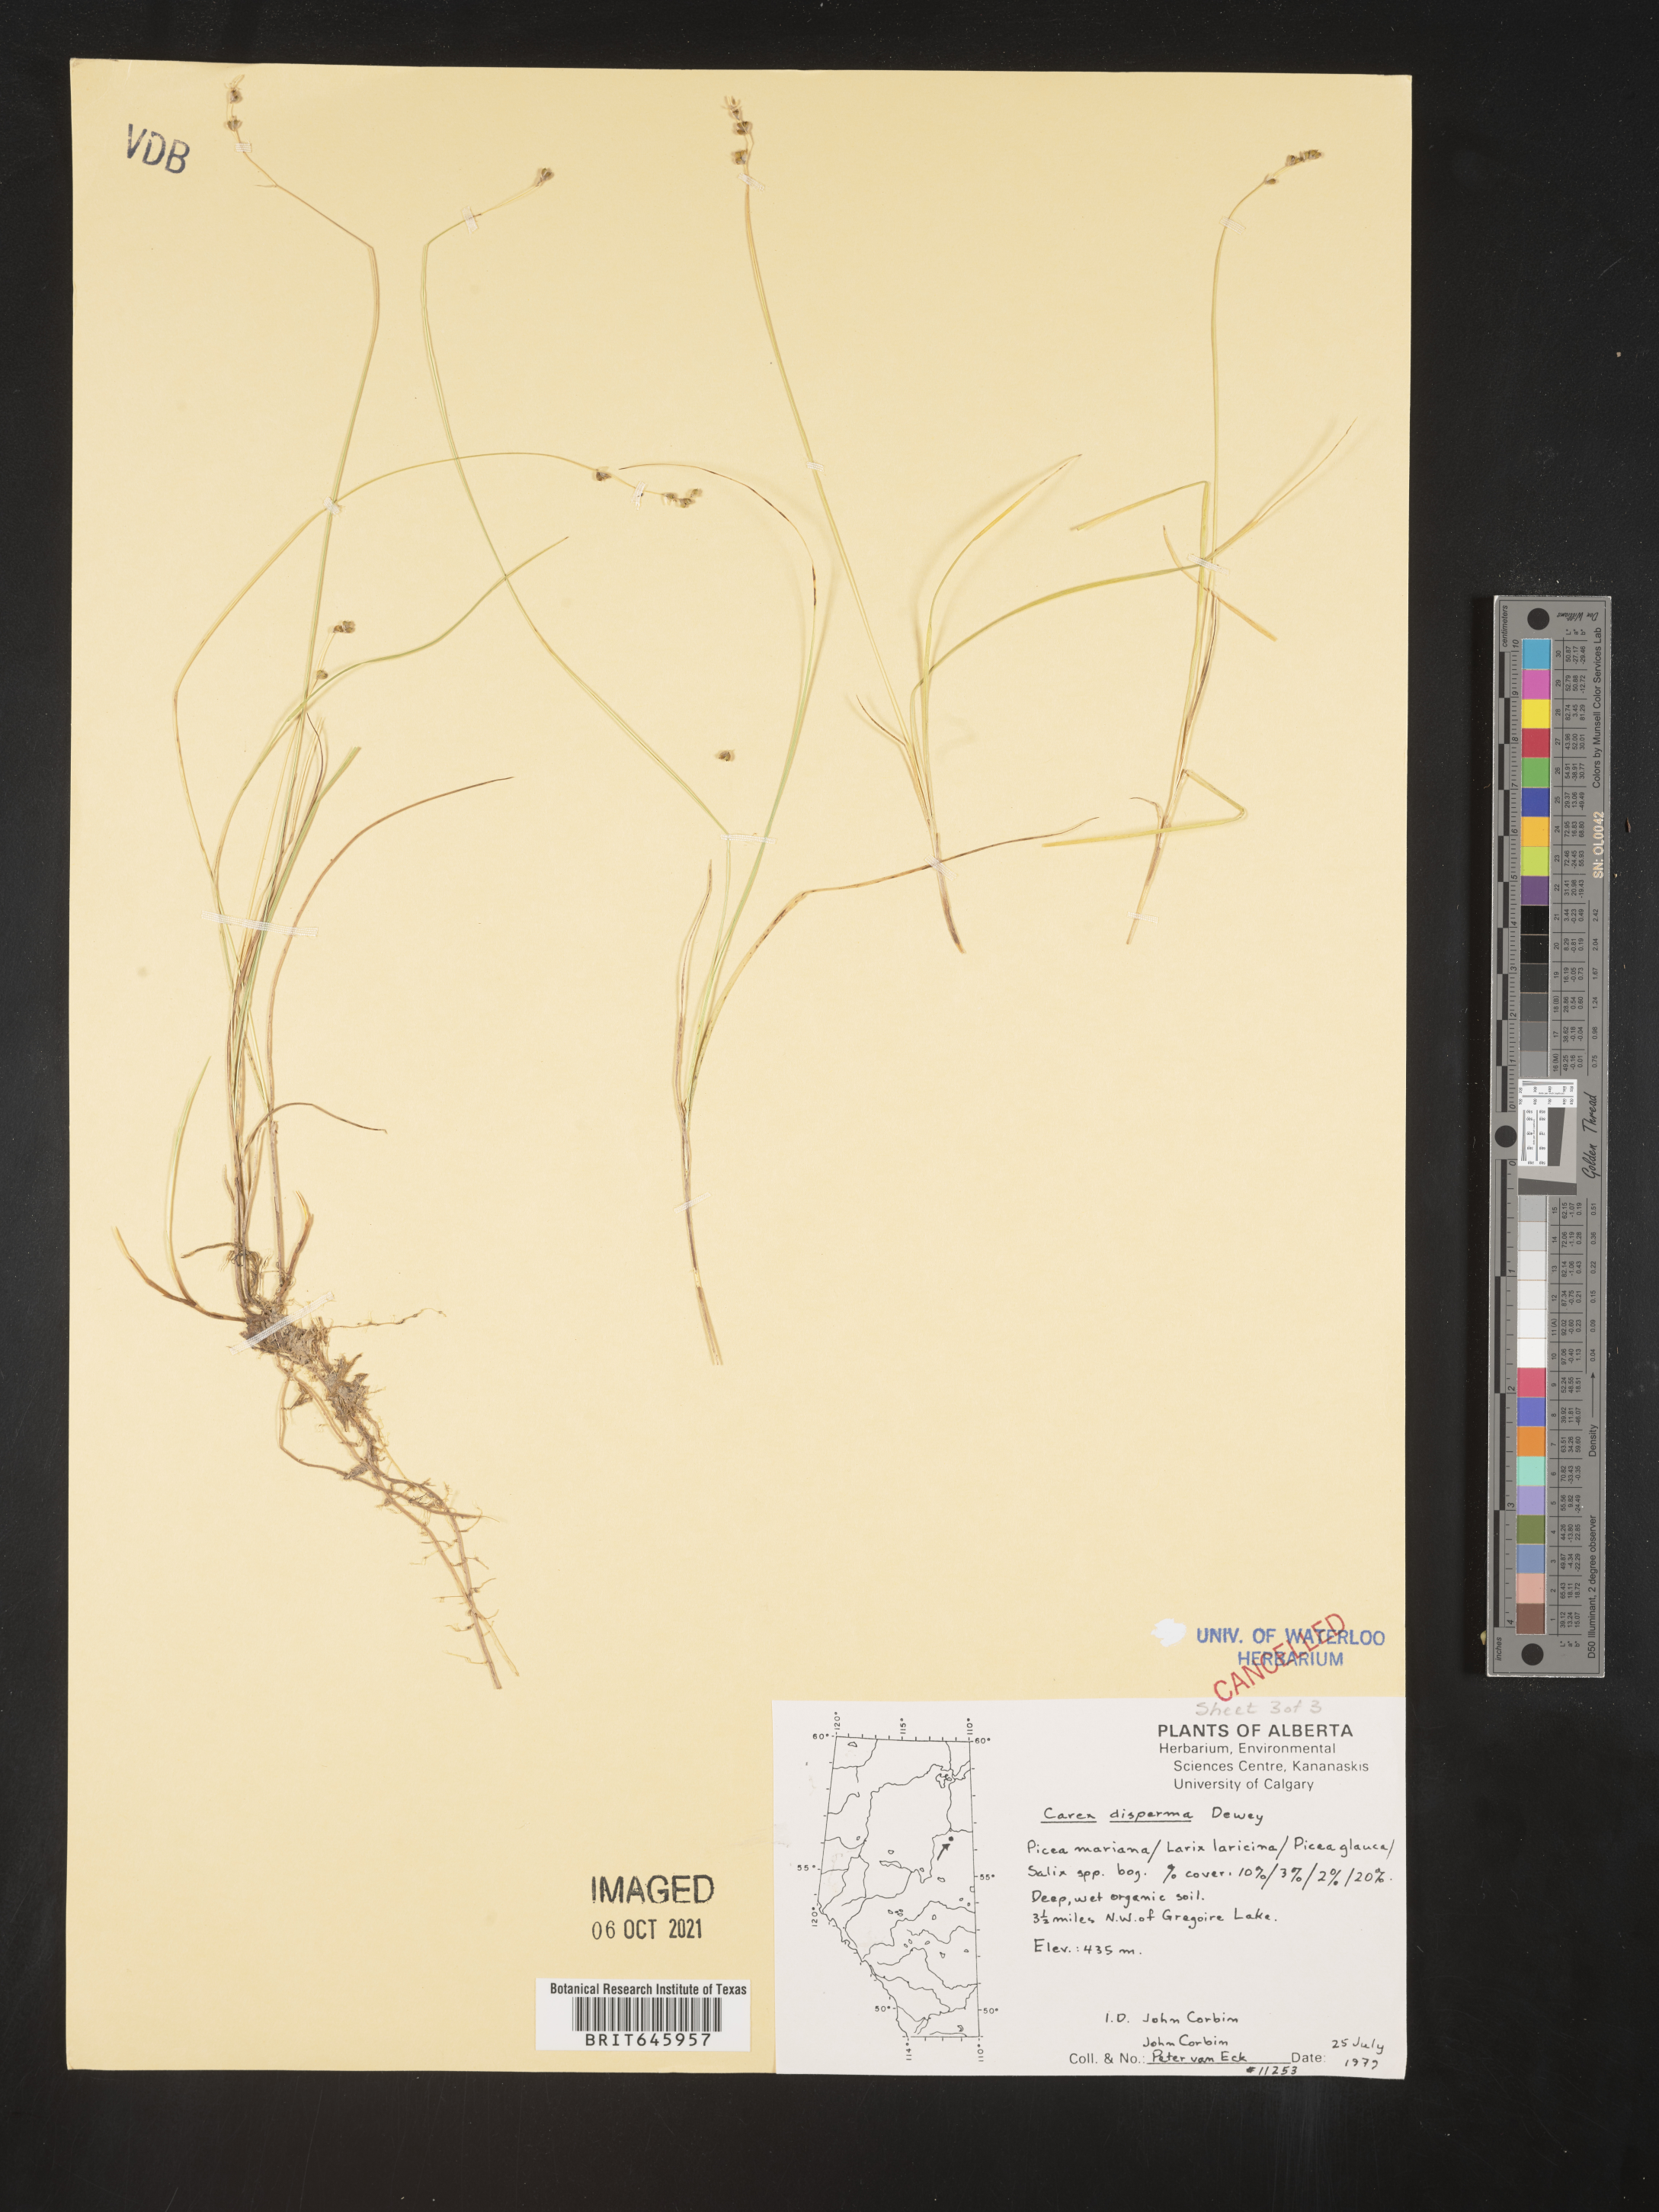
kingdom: Plantae
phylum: Tracheophyta
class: Liliopsida
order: Poales
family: Cyperaceae
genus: Carex
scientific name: Carex disperma
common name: Short-leaved sedge
